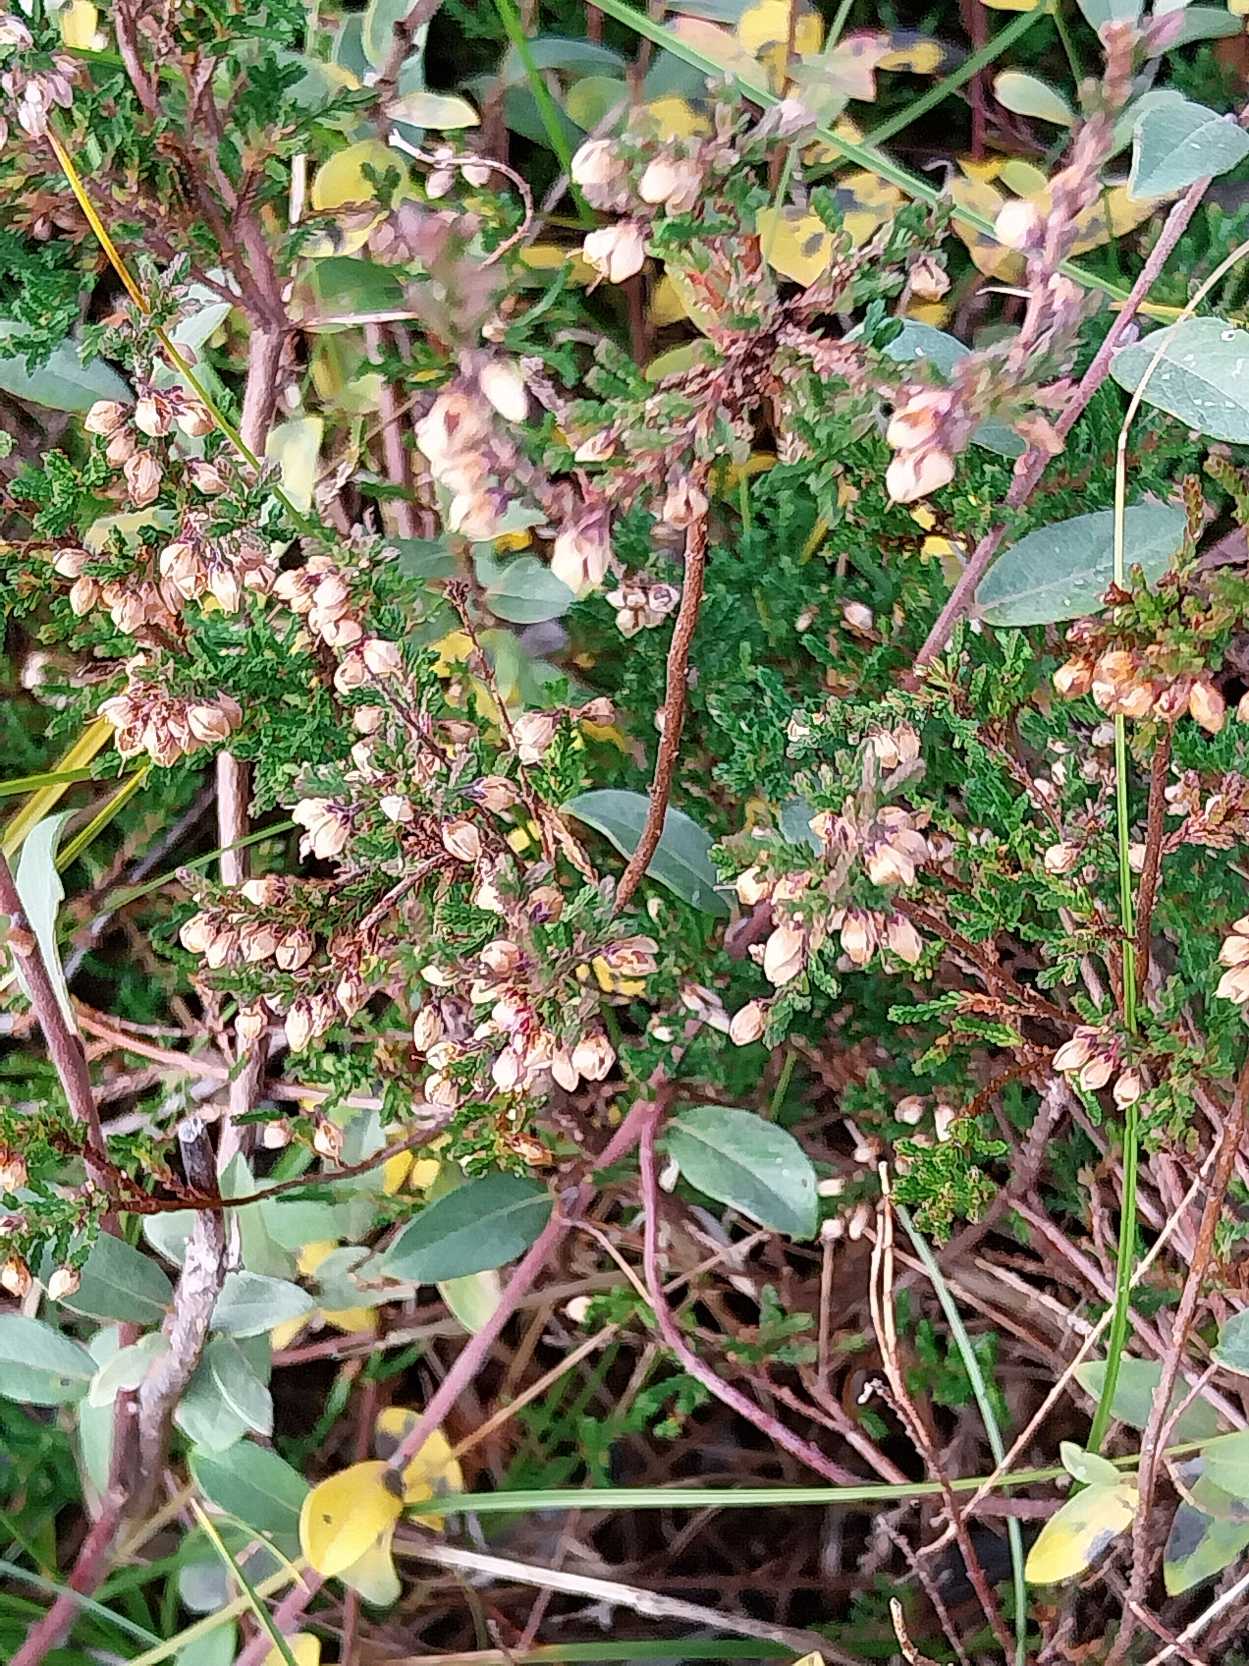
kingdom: Plantae
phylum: Tracheophyta
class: Magnoliopsida
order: Ericales
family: Ericaceae
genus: Calluna
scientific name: Calluna vulgaris
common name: Hedelyng
